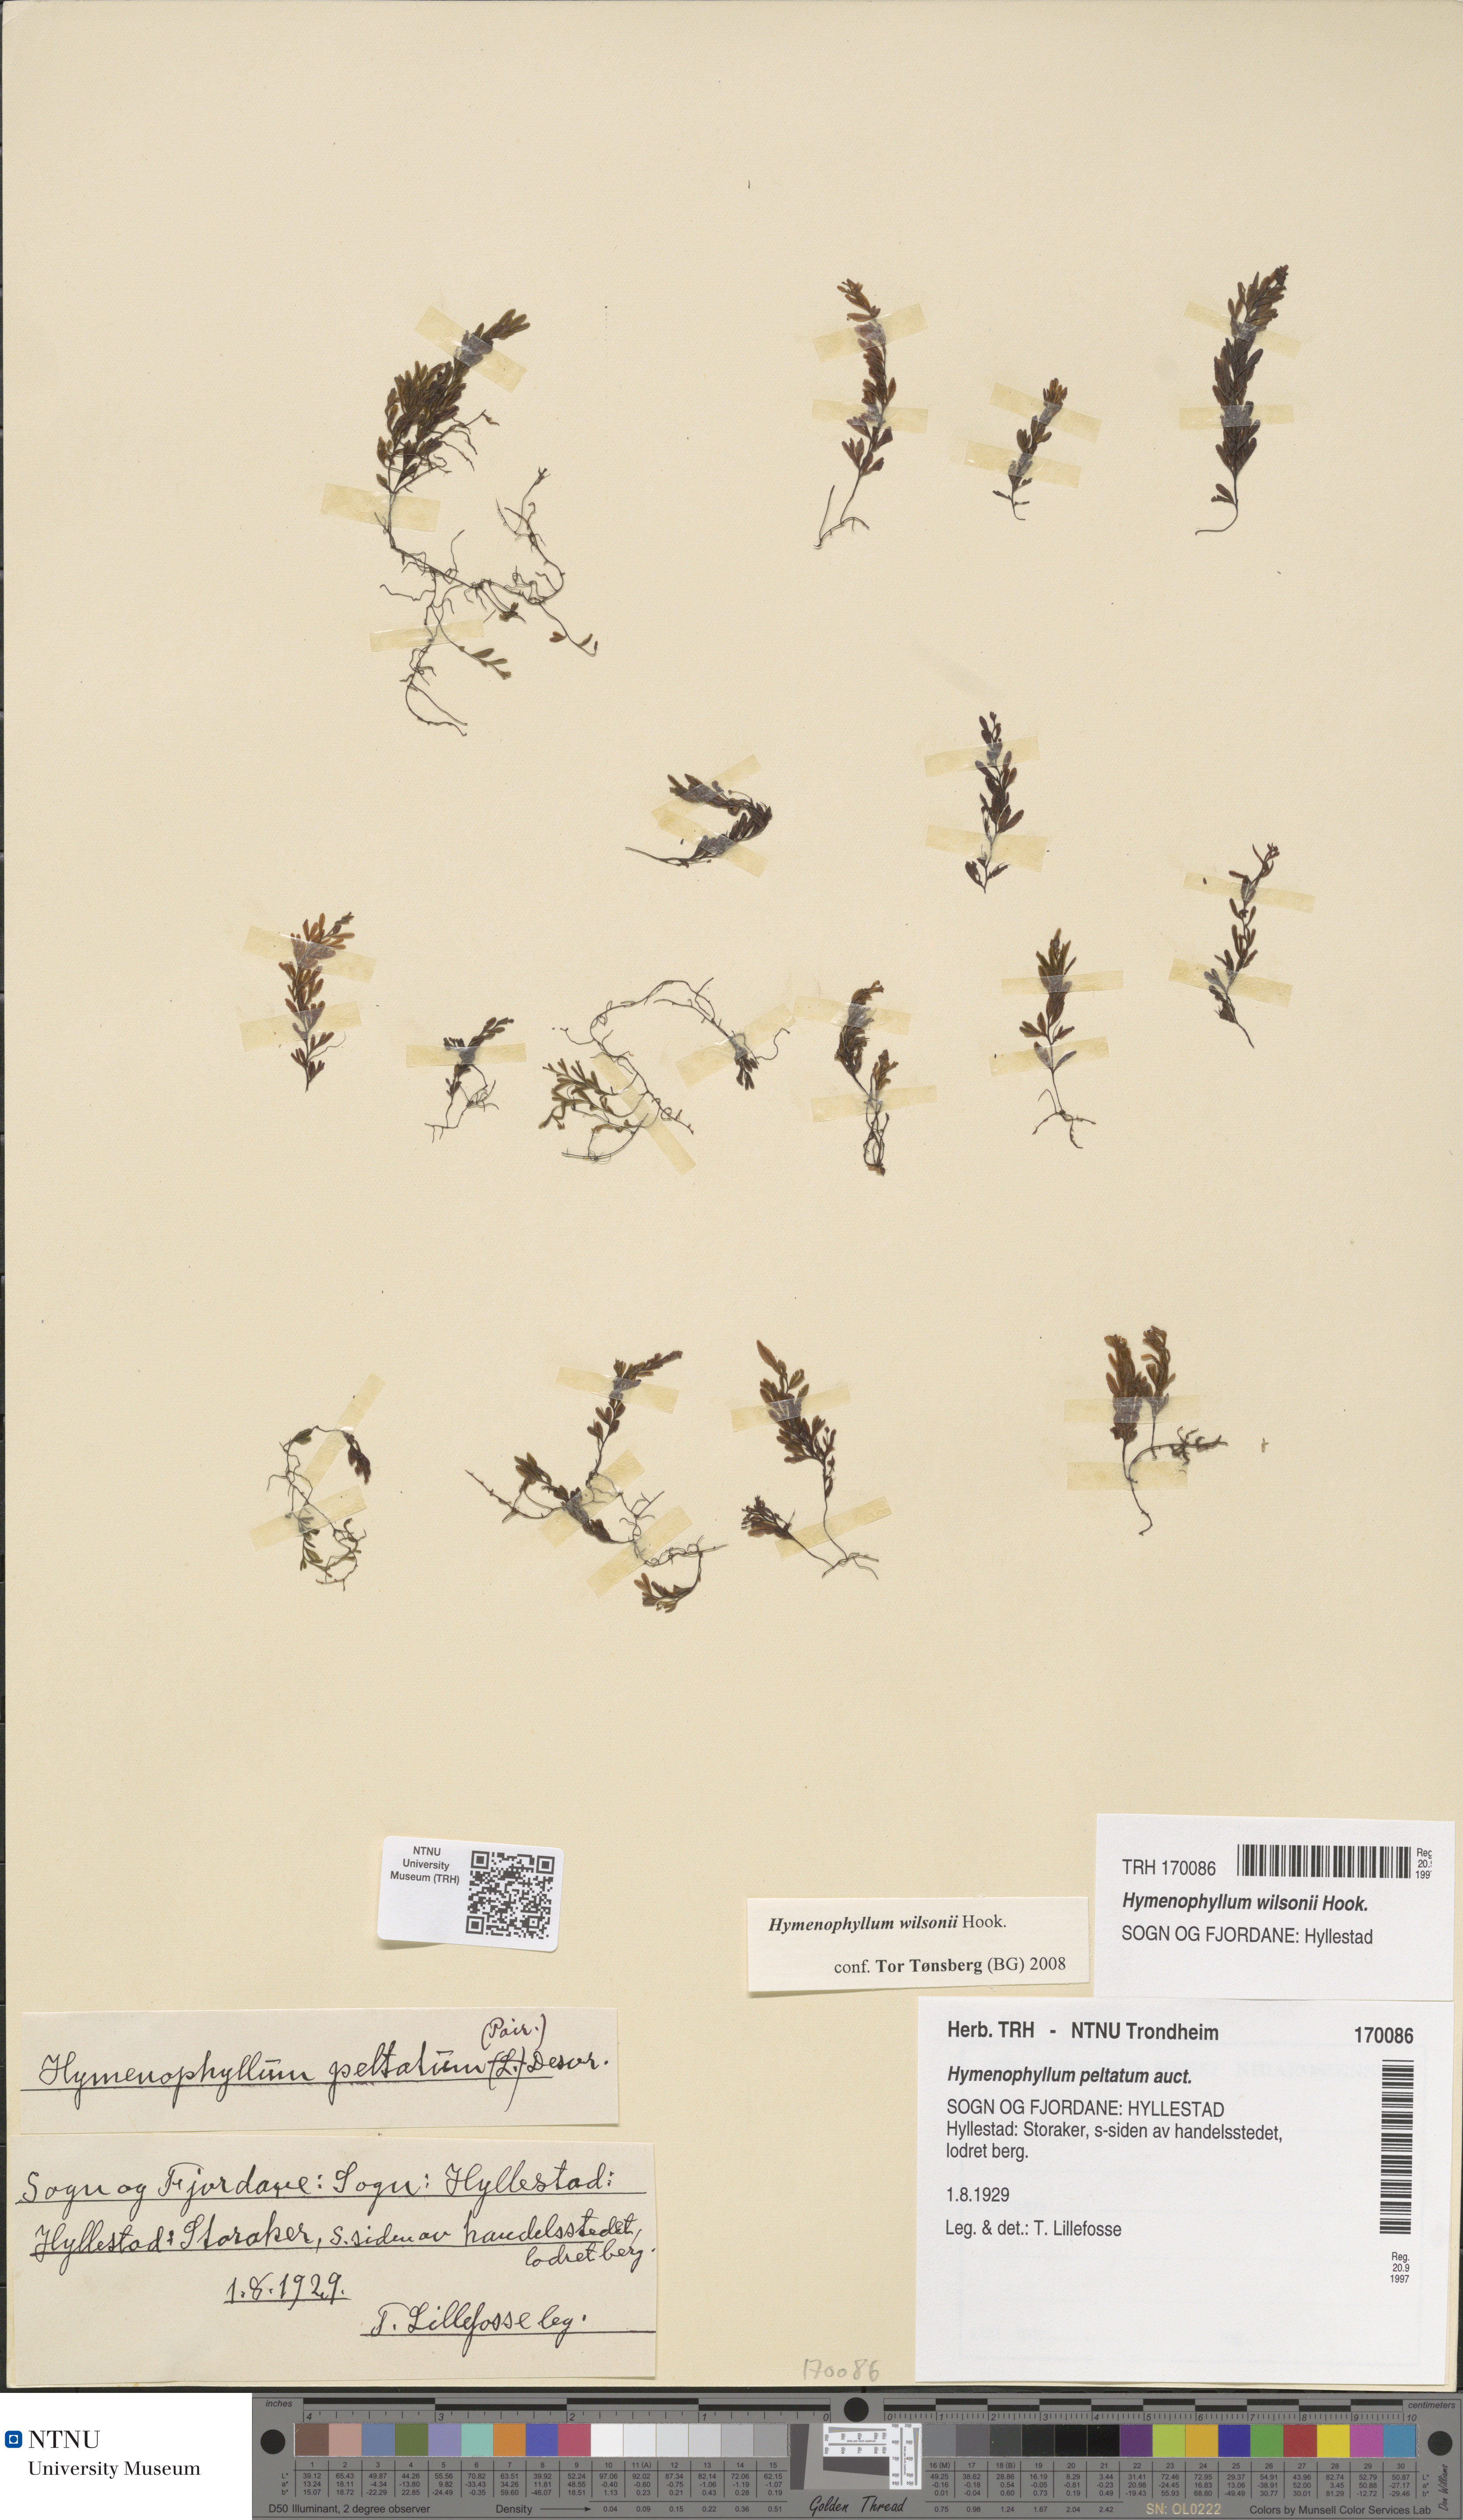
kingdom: Plantae
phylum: Tracheophyta
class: Polypodiopsida
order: Hymenophyllales
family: Hymenophyllaceae
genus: Hymenophyllum
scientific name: Hymenophyllum peltatum
